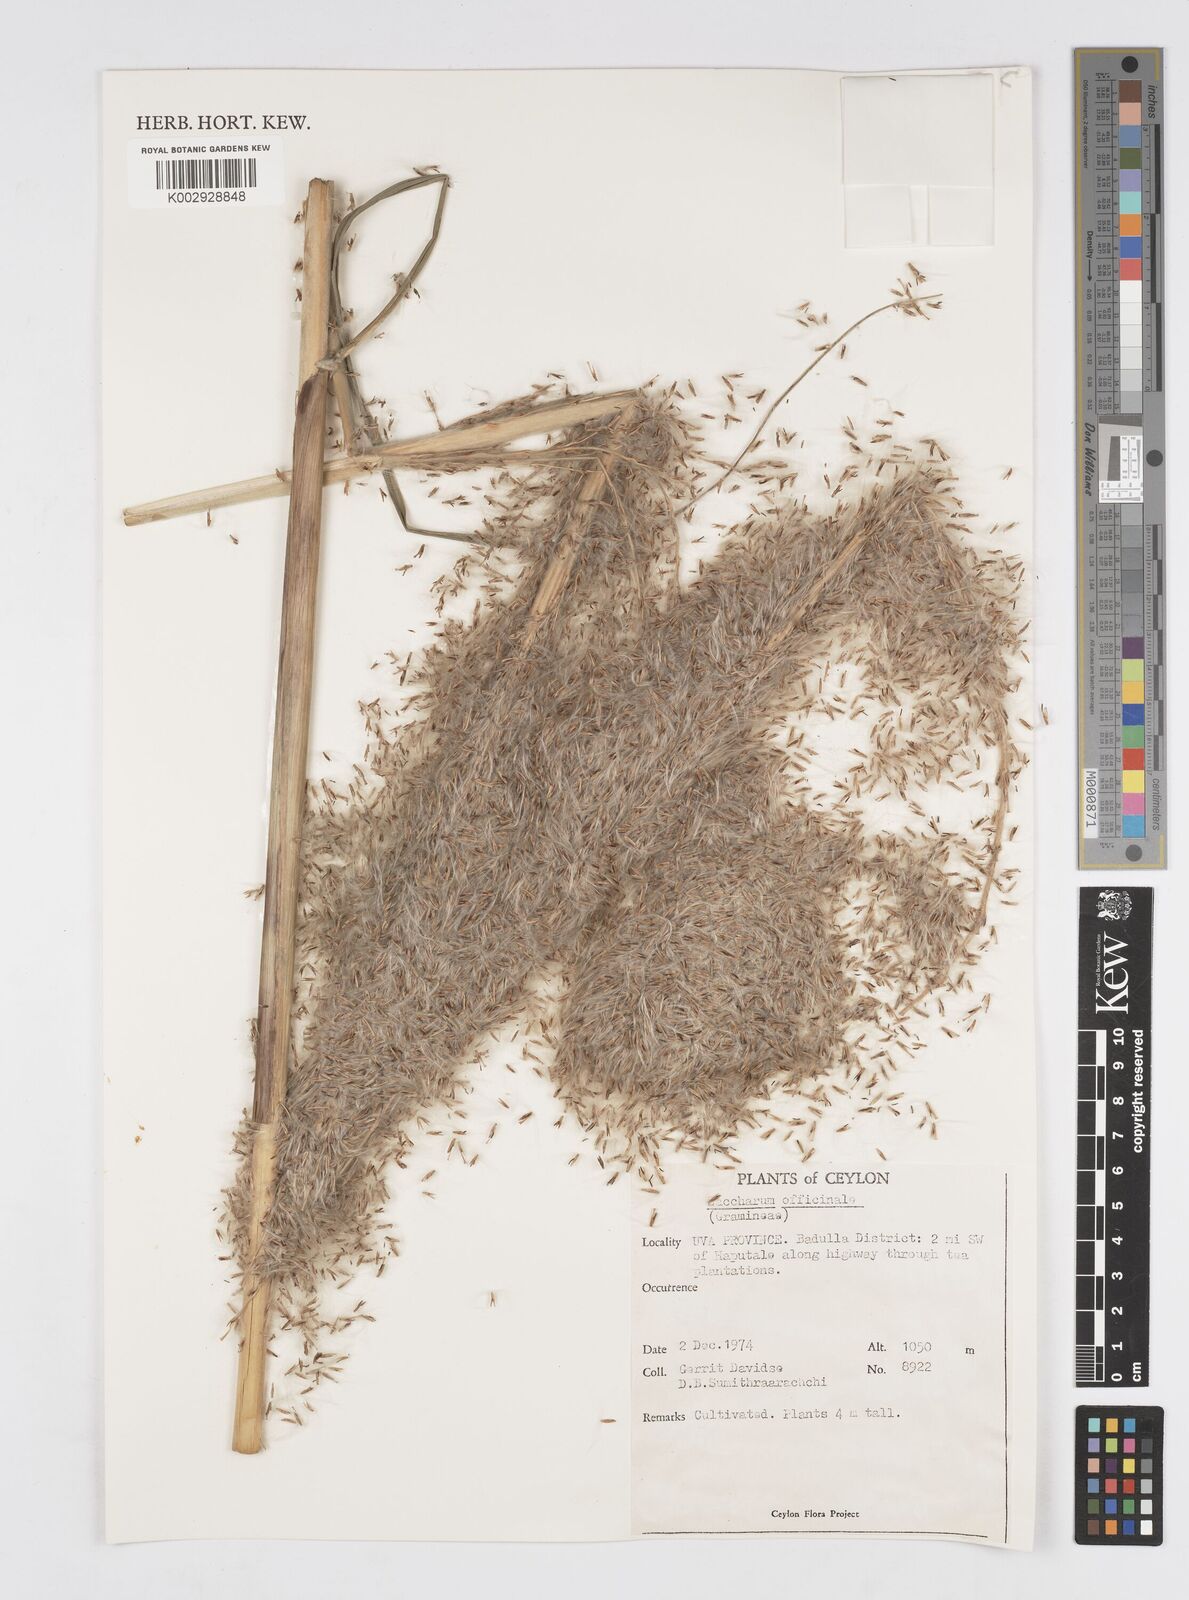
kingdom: Plantae
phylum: Tracheophyta
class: Liliopsida
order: Poales
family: Poaceae
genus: Saccharum
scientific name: Saccharum officinarum
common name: Sugarcane
